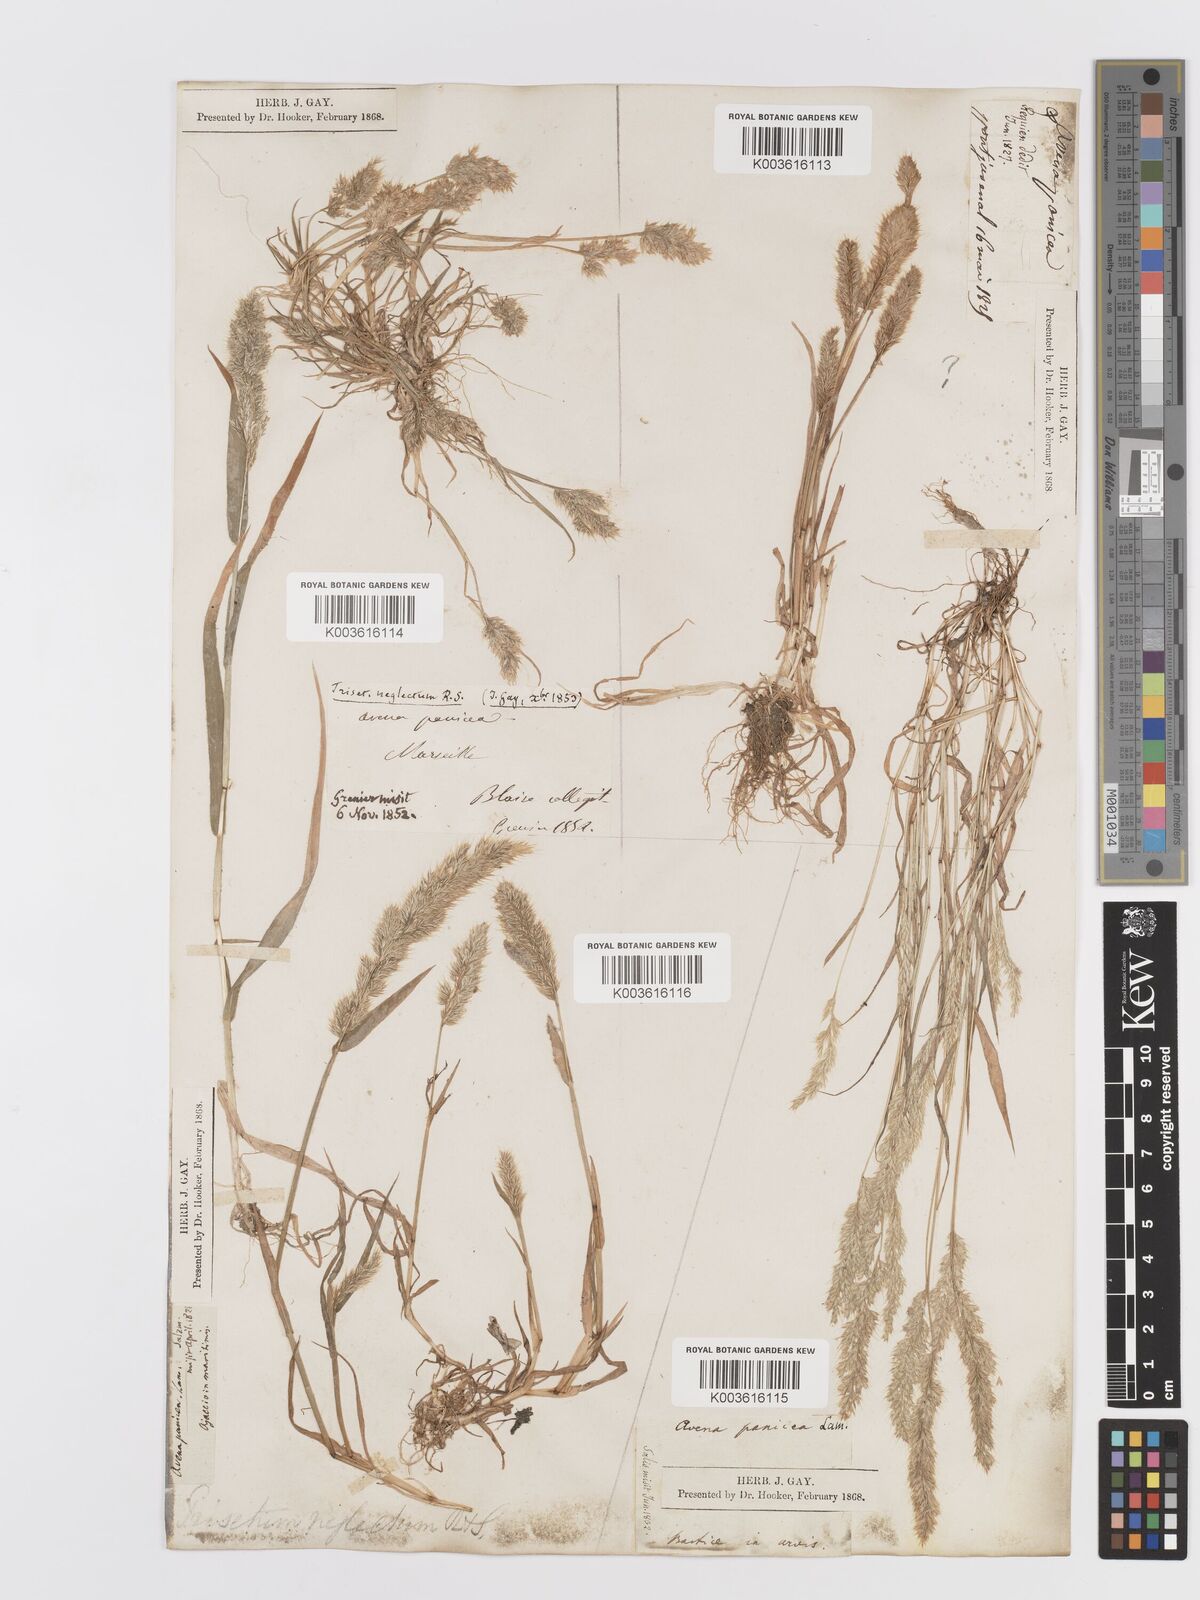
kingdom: Plantae
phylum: Tracheophyta
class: Liliopsida
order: Poales
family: Poaceae
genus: Trisetaria
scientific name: Trisetaria panicea
